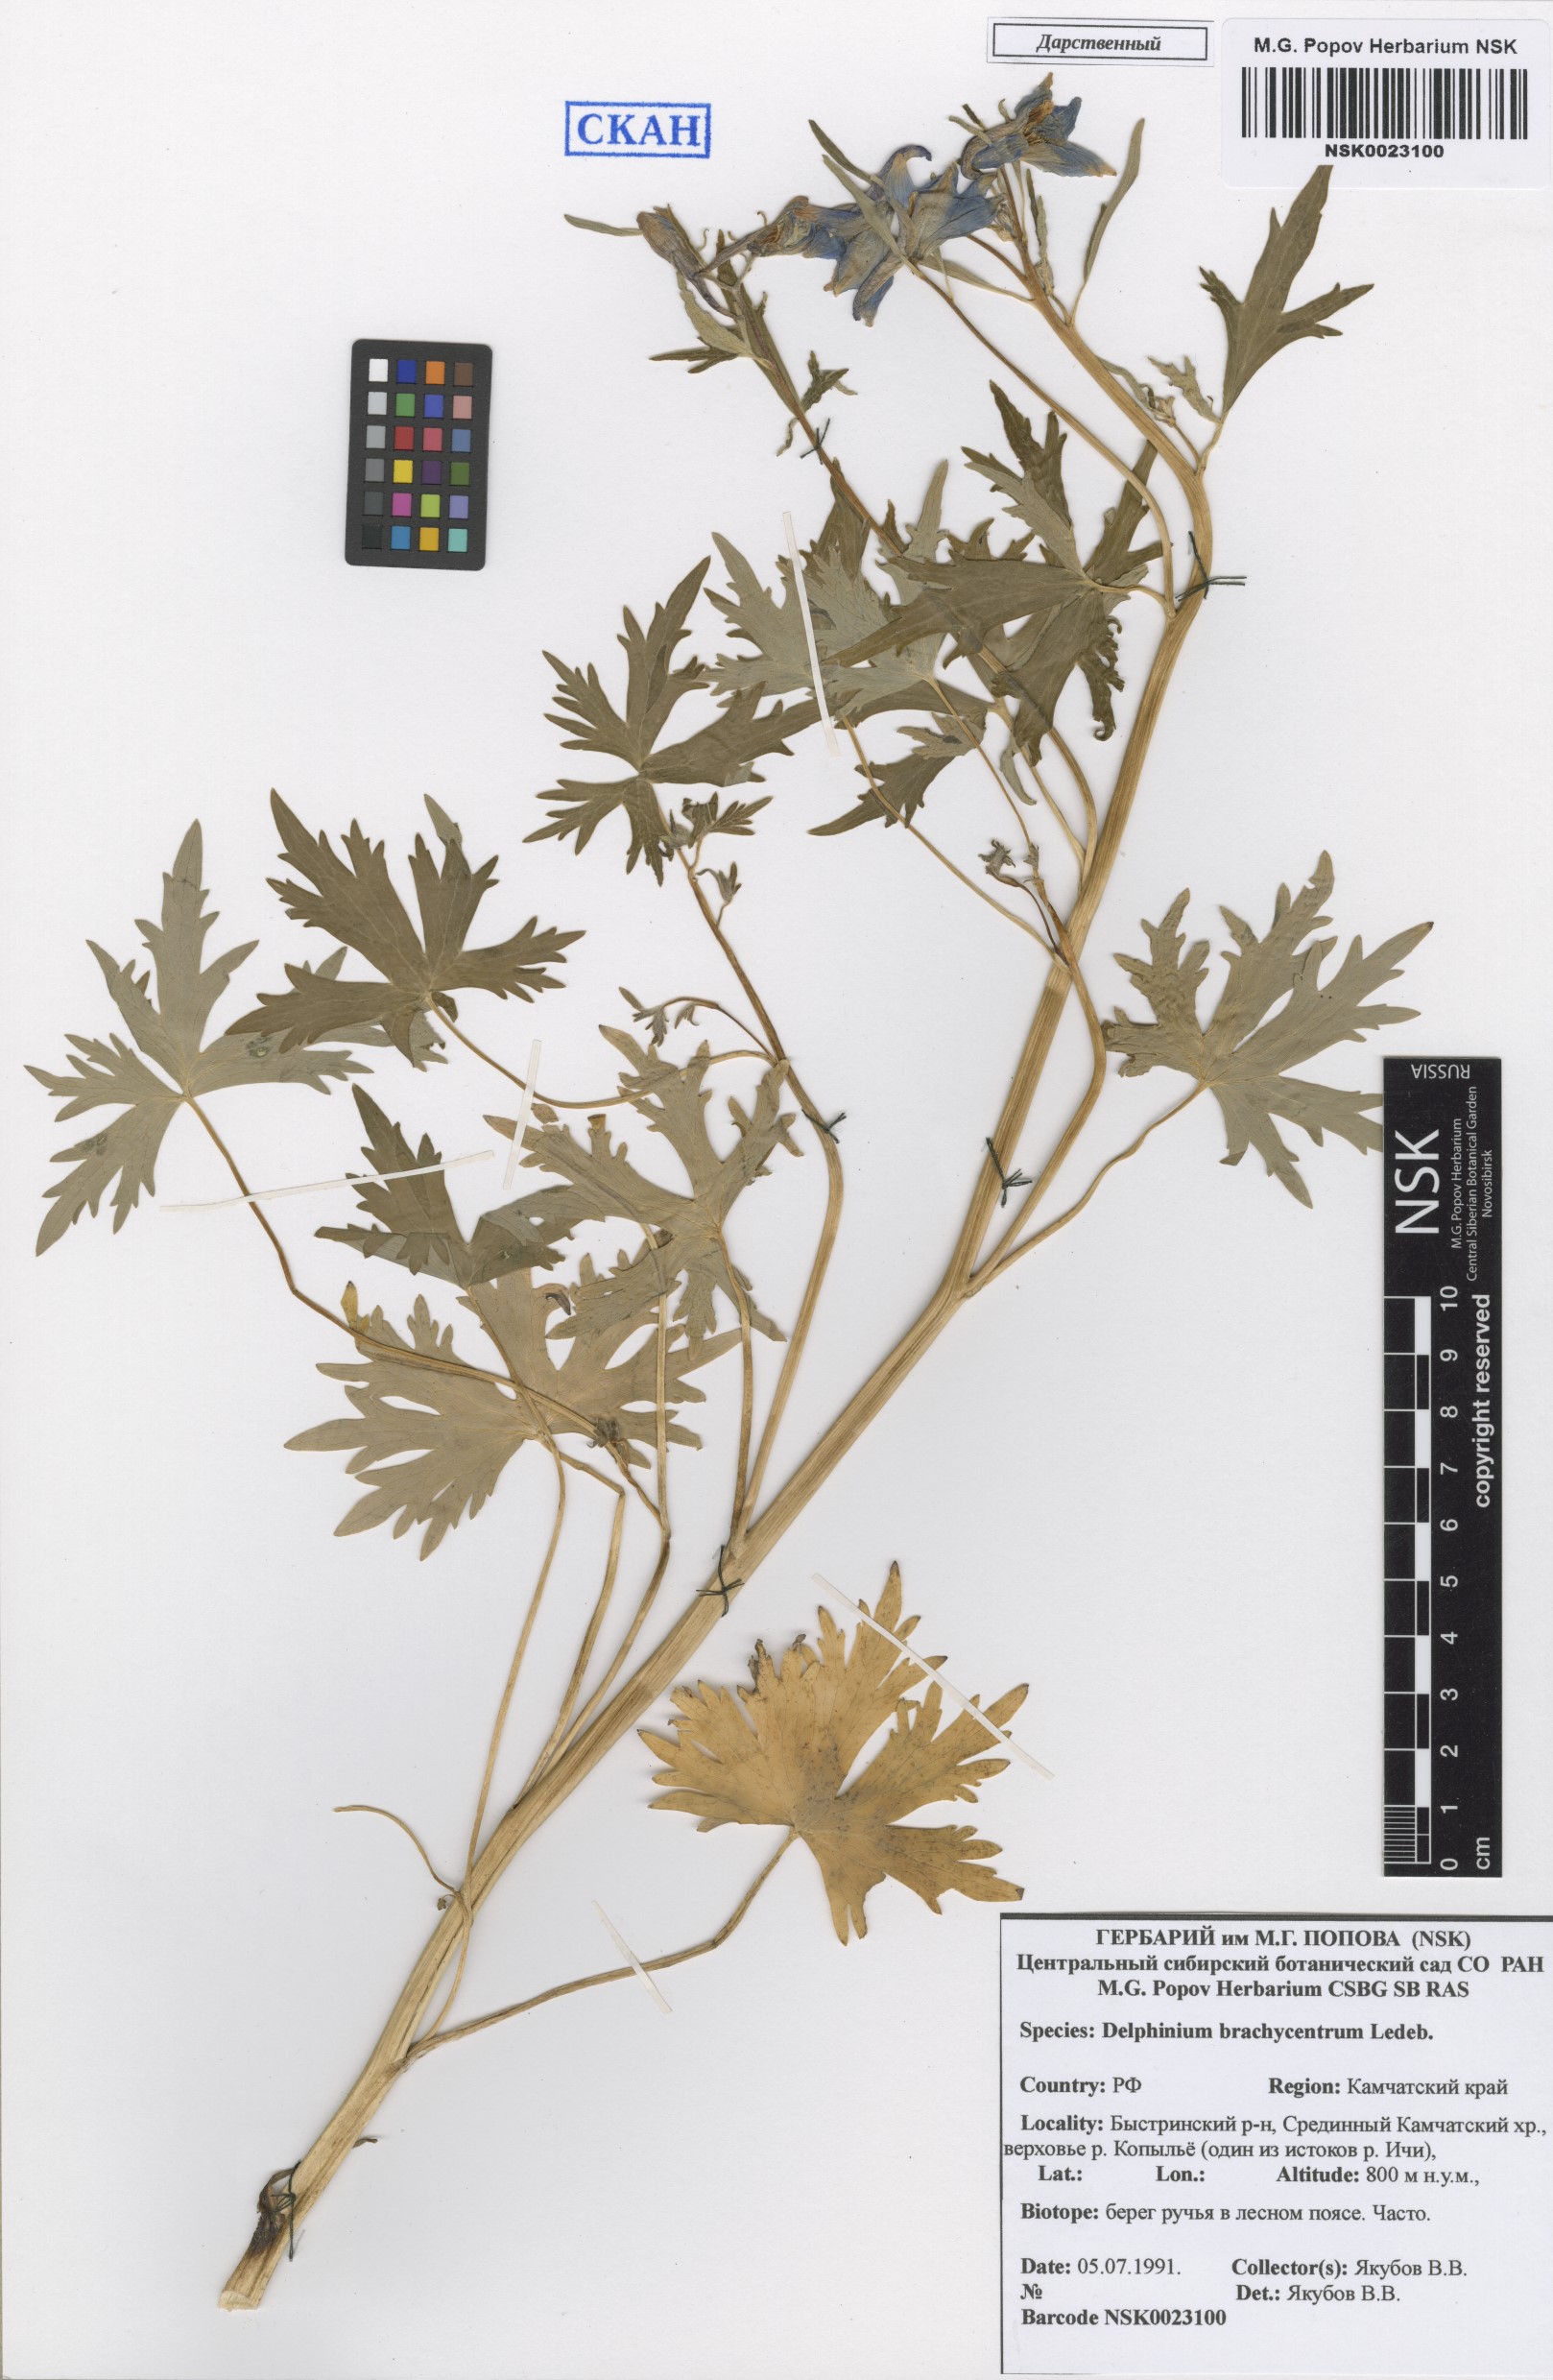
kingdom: Plantae
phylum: Tracheophyta
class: Magnoliopsida
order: Ranunculales
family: Ranunculaceae
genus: Delphinium
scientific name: Delphinium brachycentrum
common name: Arctic larkspur
